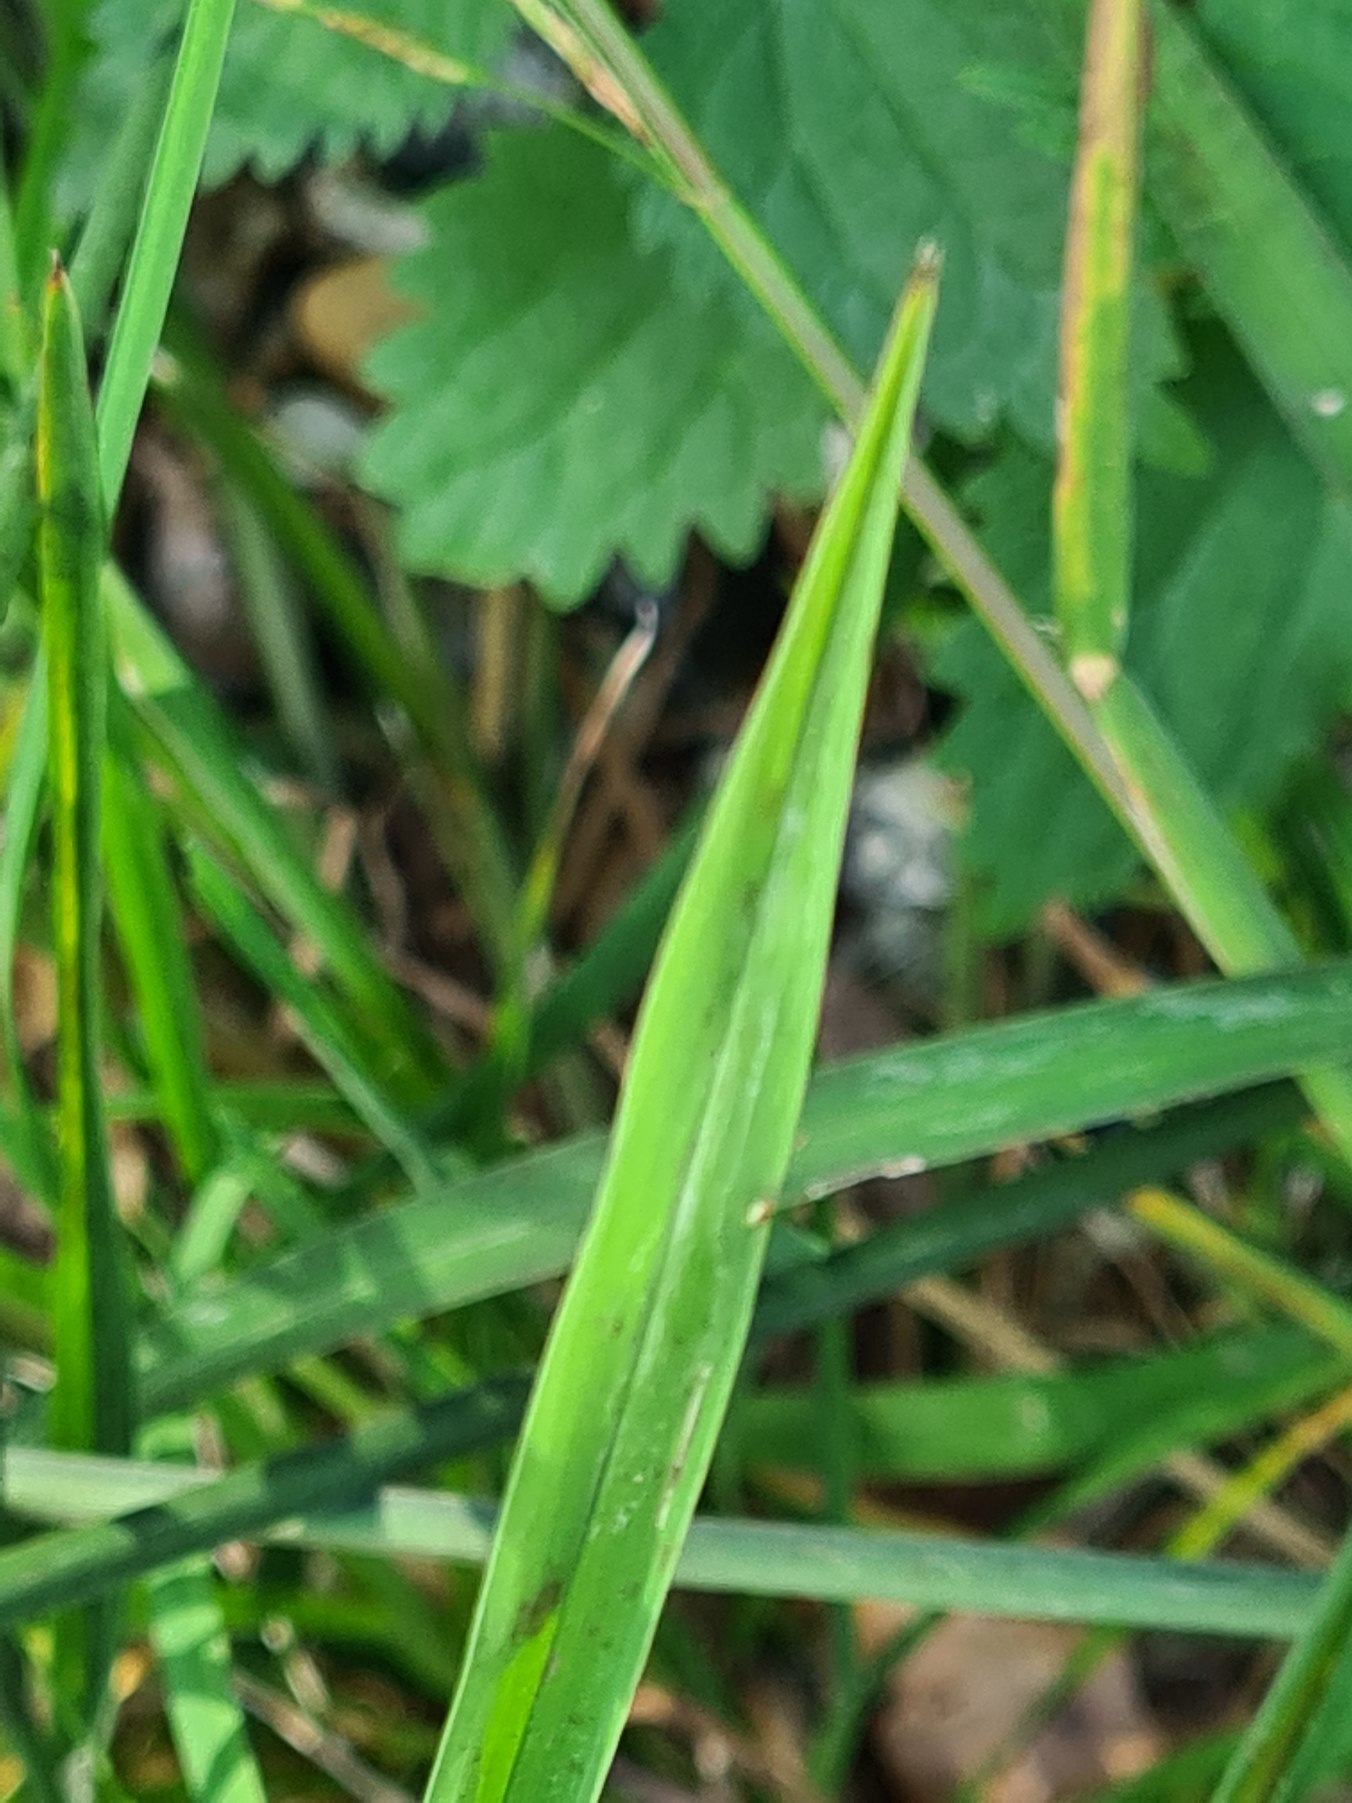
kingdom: Plantae
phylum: Tracheophyta
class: Liliopsida
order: Poales
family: Poaceae
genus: Glyceria
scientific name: Glyceria fluitans
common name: Manna-sødgræs
